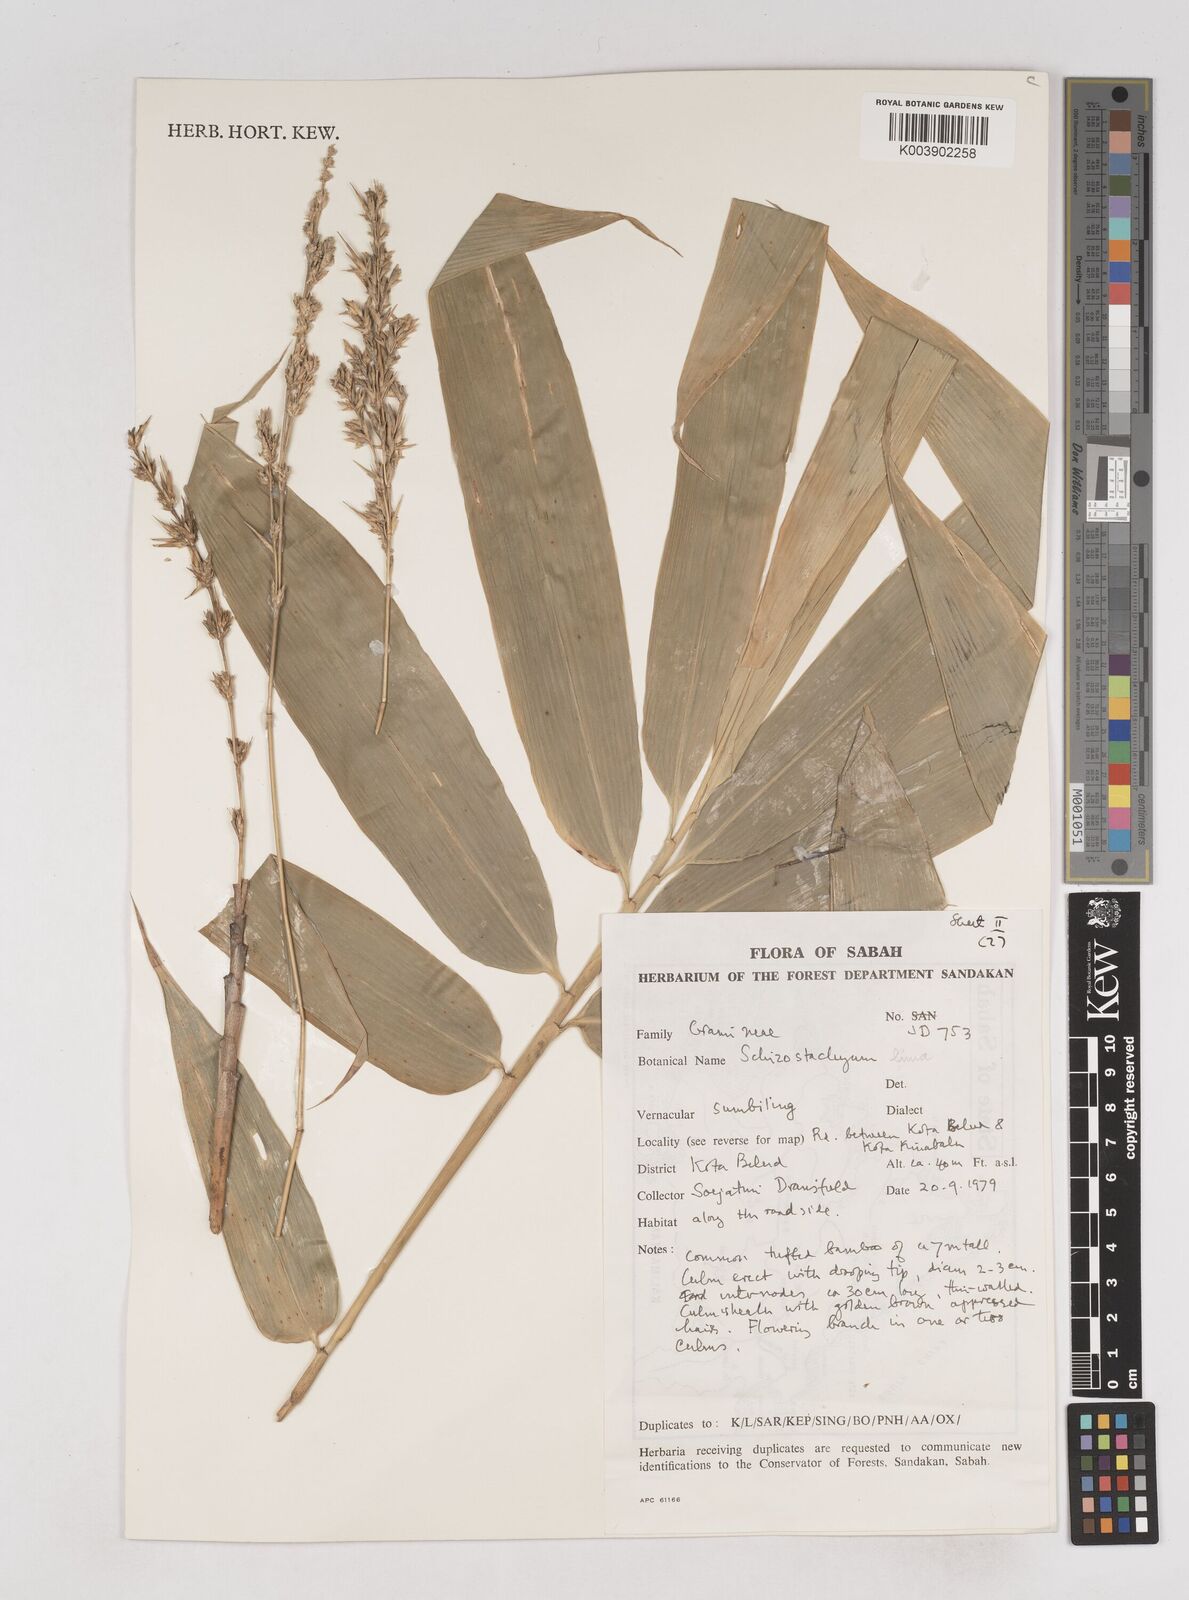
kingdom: Plantae
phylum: Tracheophyta
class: Liliopsida
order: Poales
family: Poaceae
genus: Schizostachyum
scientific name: Schizostachyum lima
